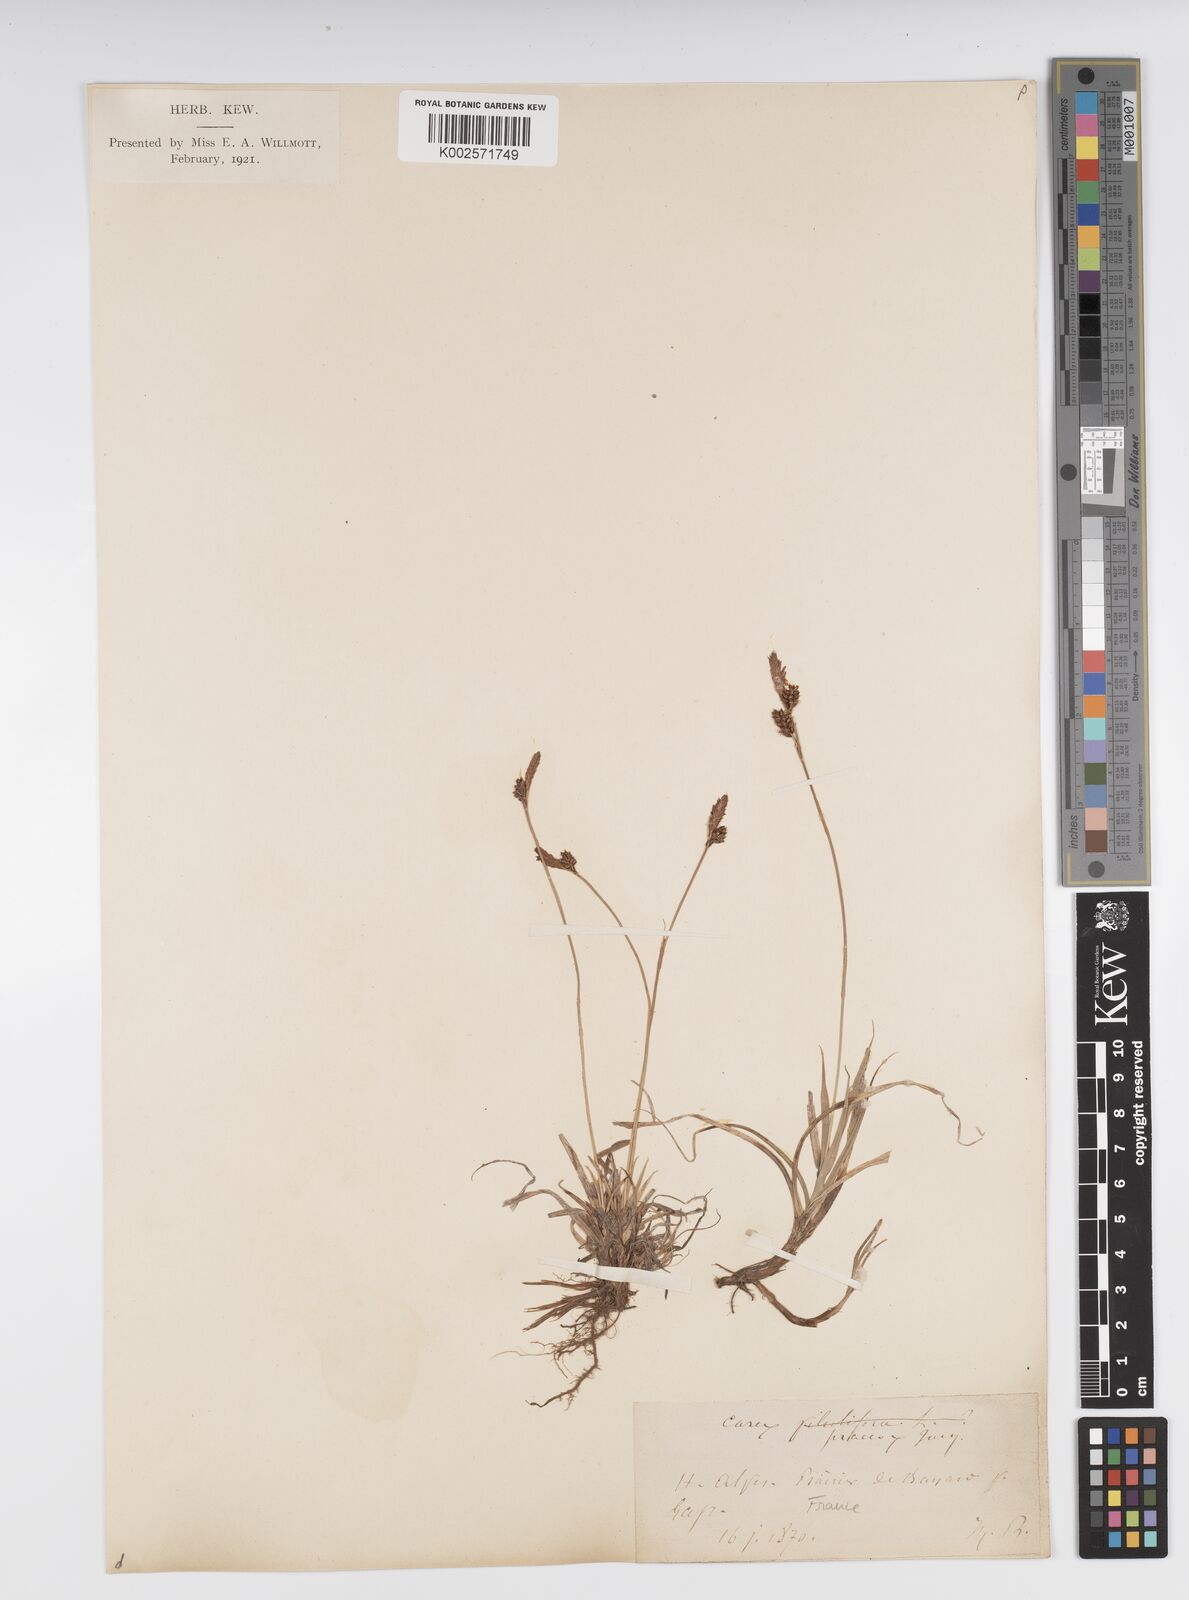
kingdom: Plantae
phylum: Tracheophyta
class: Liliopsida
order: Poales
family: Cyperaceae
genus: Carex
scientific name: Carex caryophyllea
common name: Spring sedge
